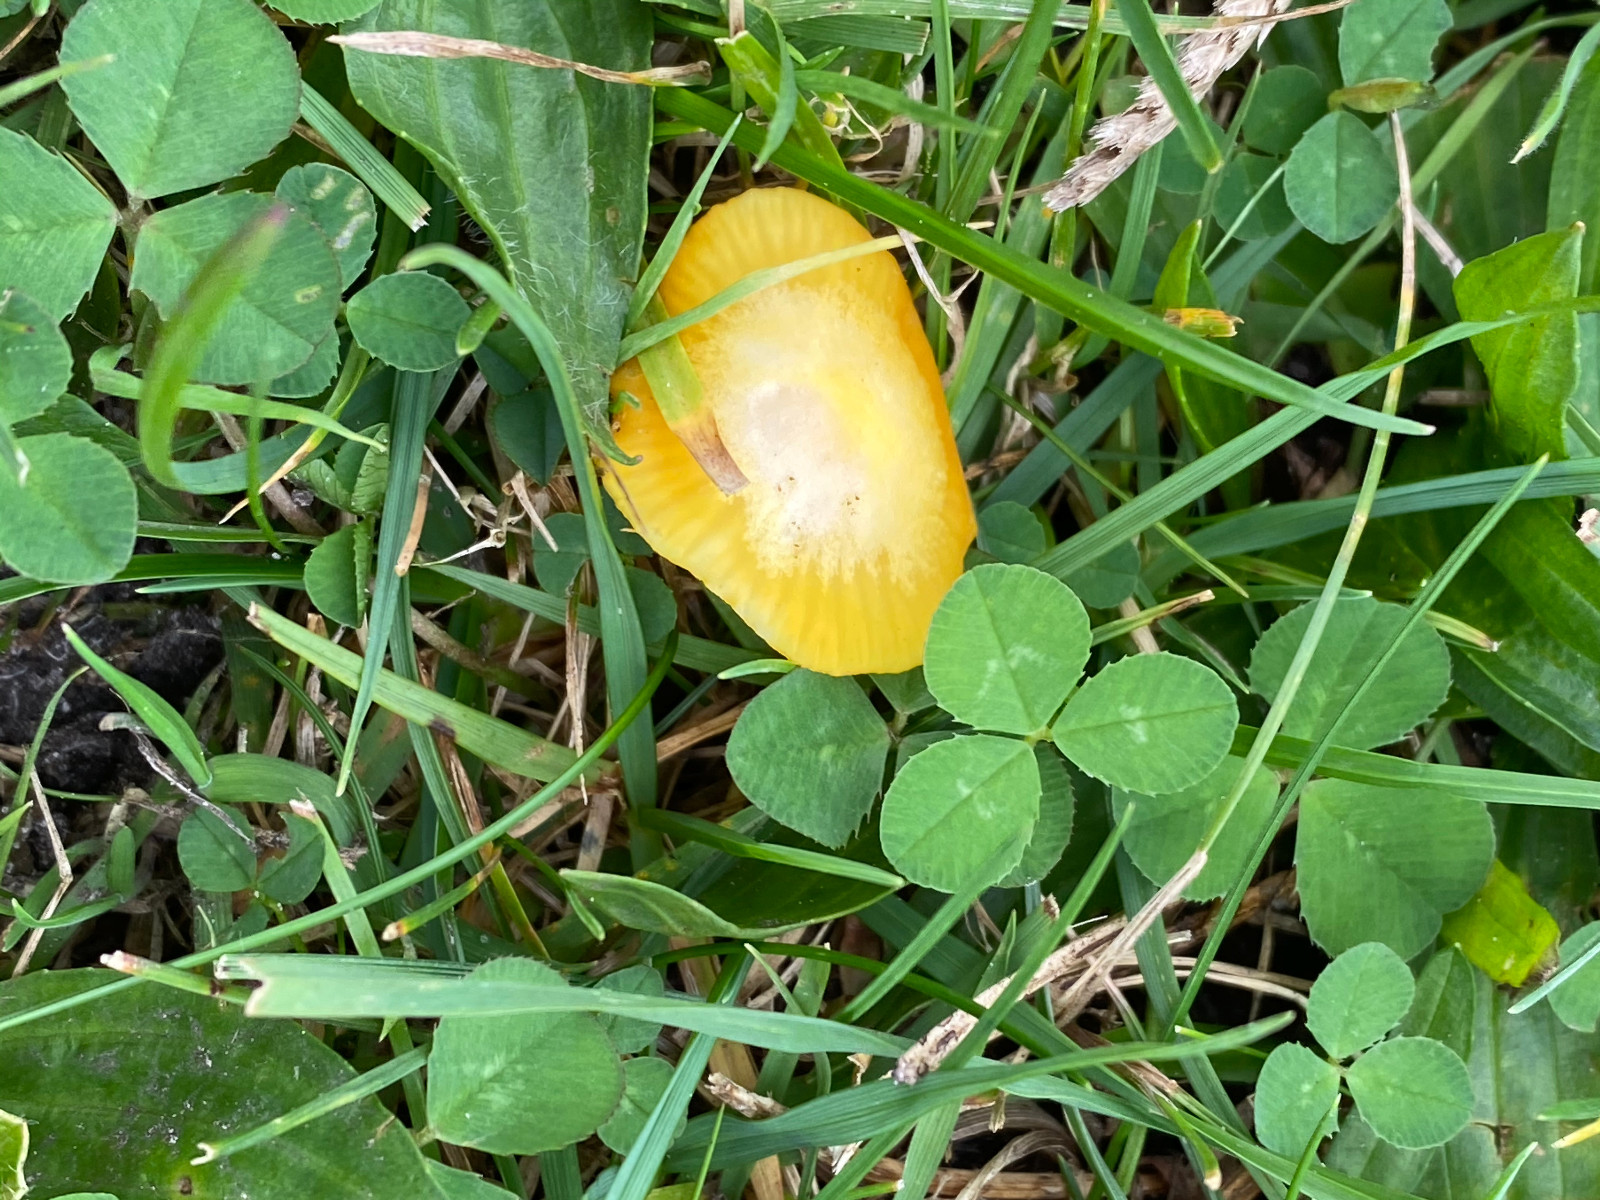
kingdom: Fungi
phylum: Basidiomycota
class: Agaricomycetes
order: Agaricales
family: Hygrophoraceae
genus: Hygrocybe
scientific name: Hygrocybe ceracea
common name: voksgul vokshat
